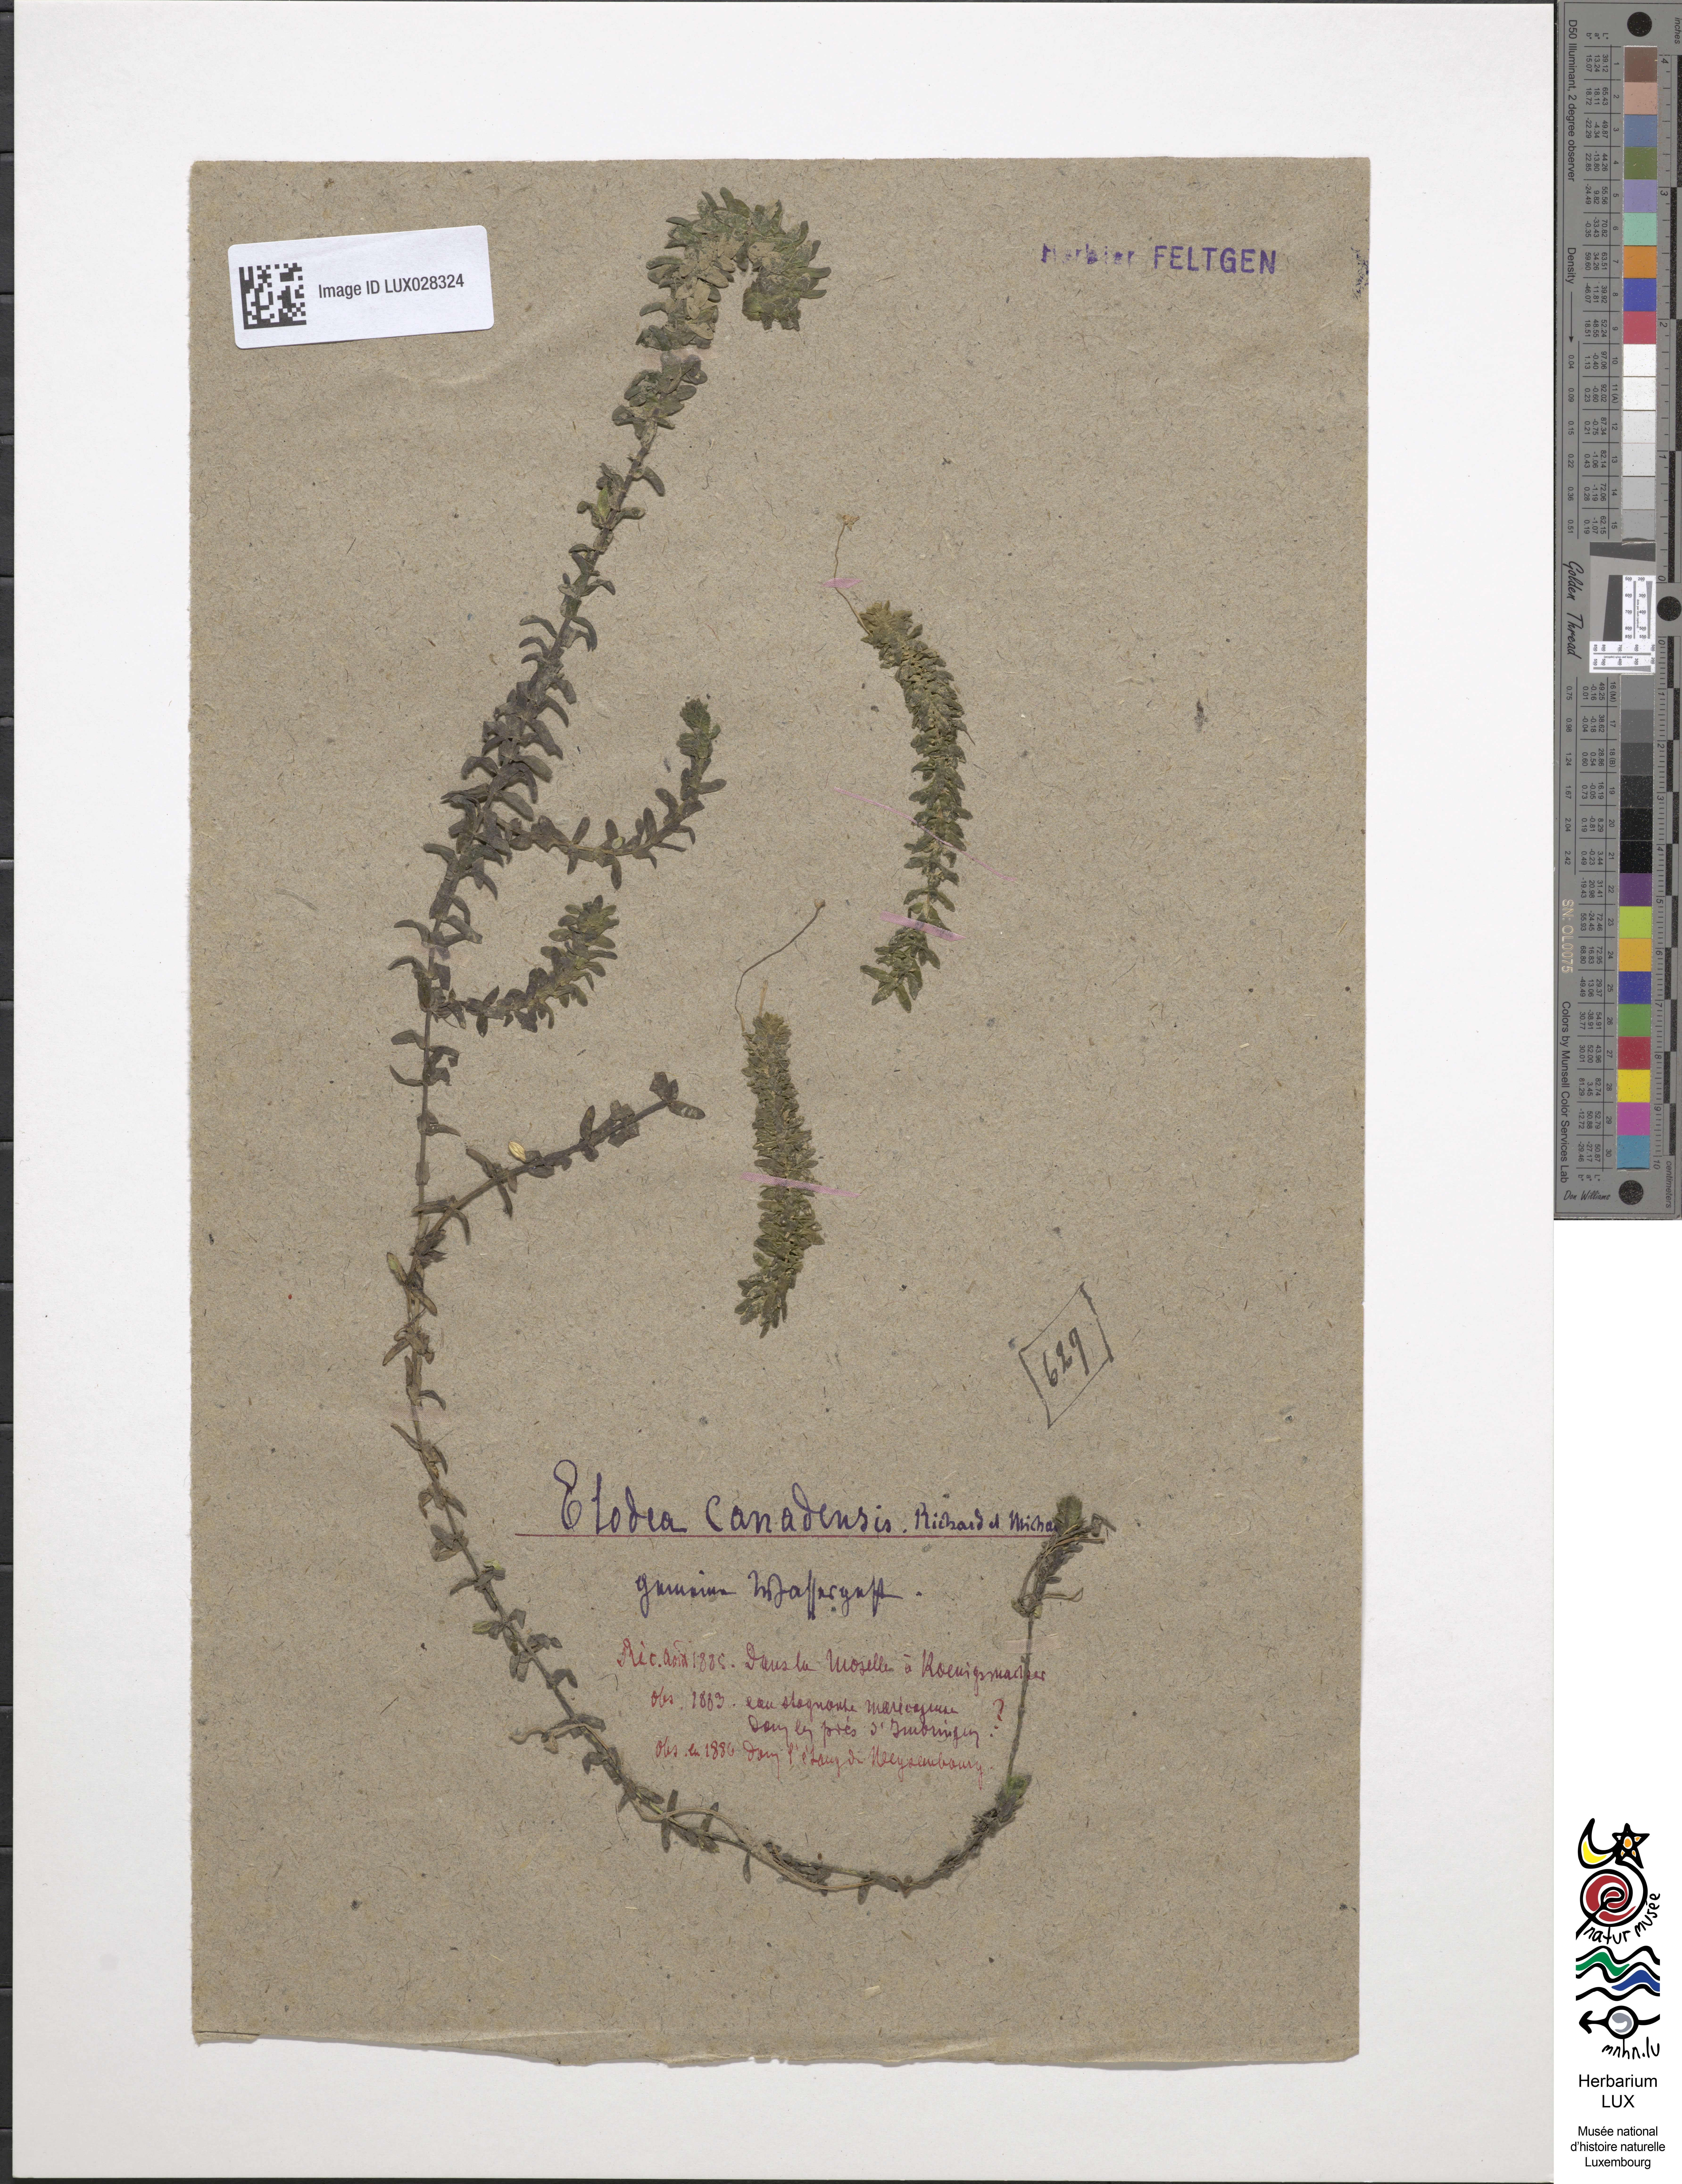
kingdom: Plantae
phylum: Tracheophyta
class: Liliopsida
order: Alismatales
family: Hydrocharitaceae
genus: Elodea
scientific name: Elodea canadensis
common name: Canadian waterweed
